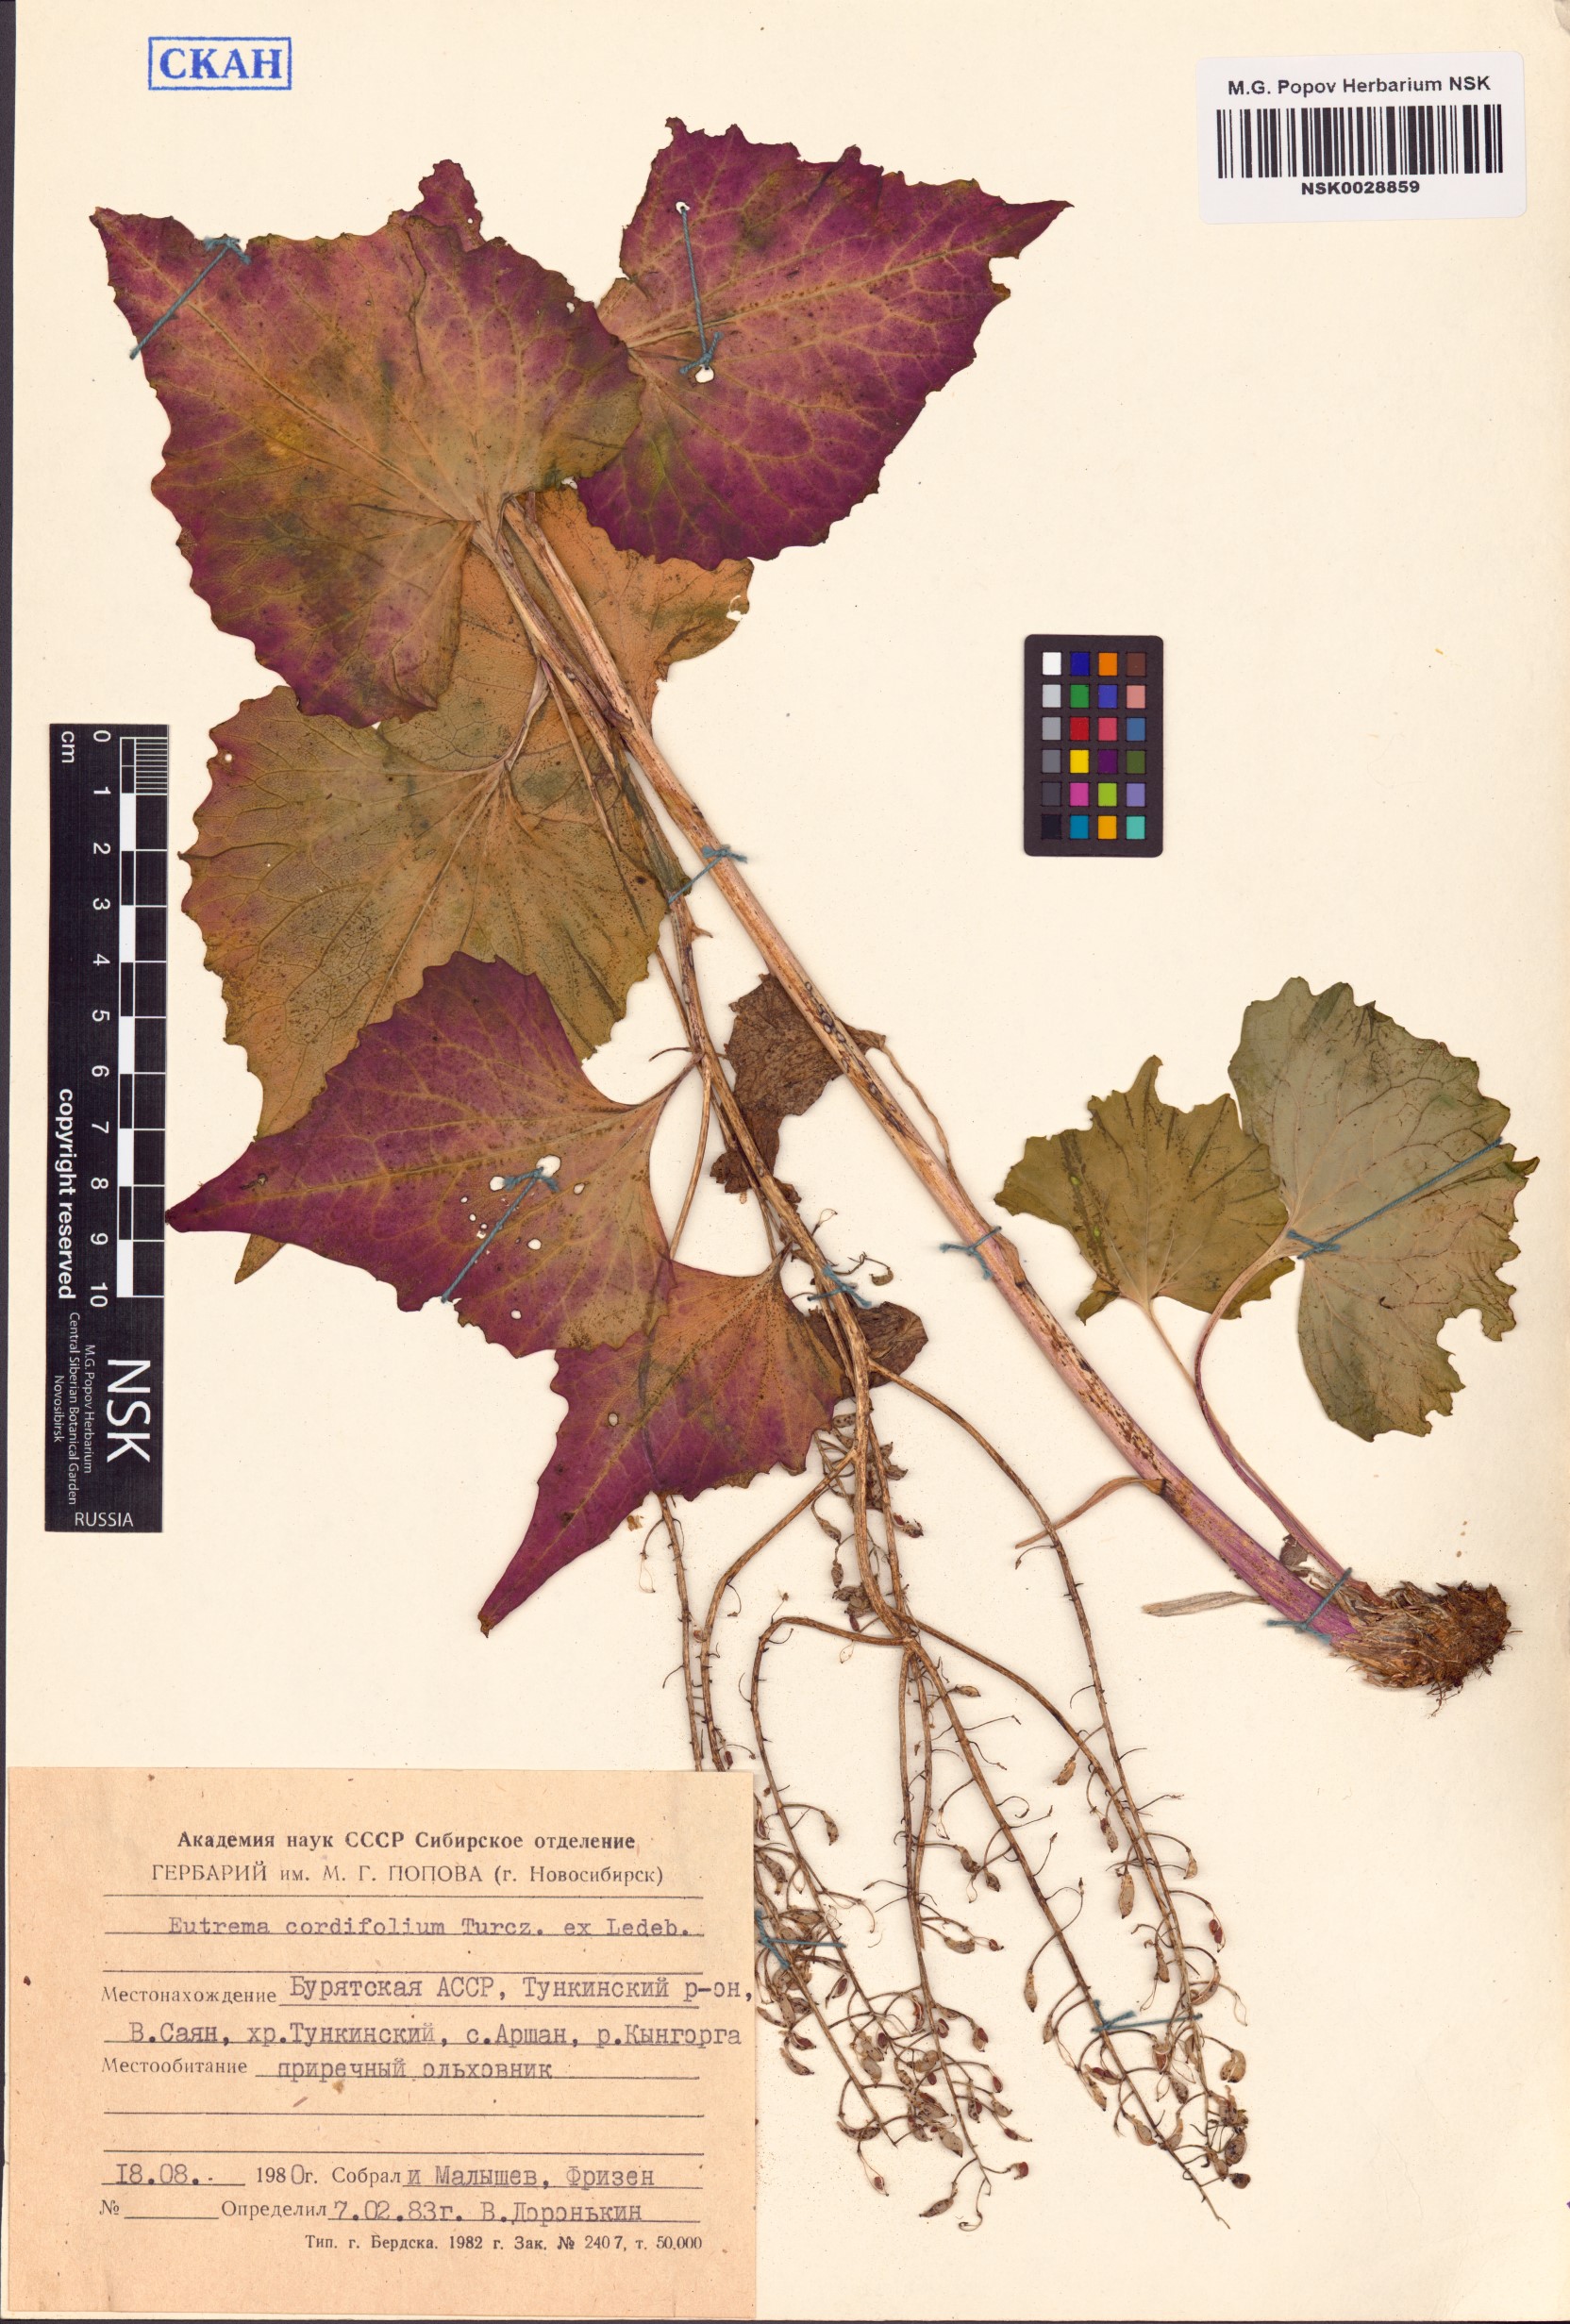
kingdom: Plantae
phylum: Tracheophyta
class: Magnoliopsida
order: Brassicales
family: Brassicaceae
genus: Eutrema
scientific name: Eutrema cordifolium
